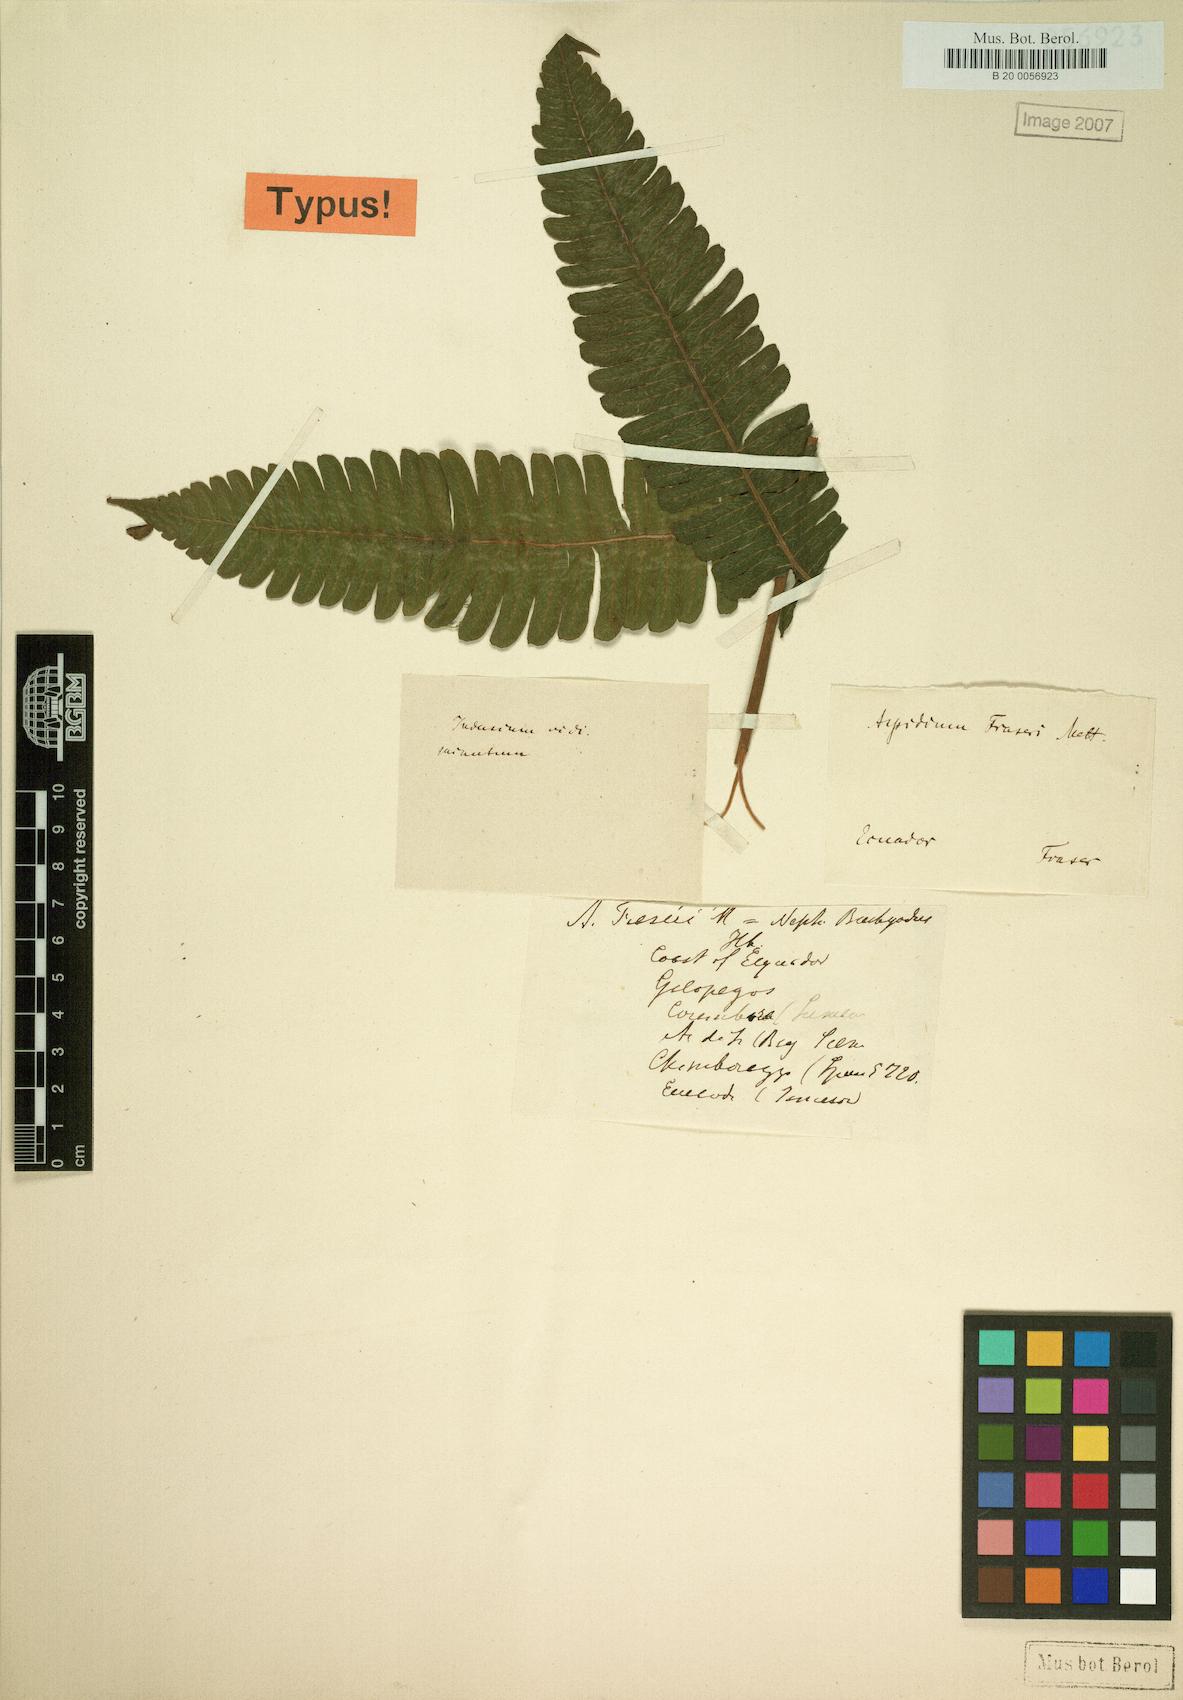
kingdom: Plantae
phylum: Tracheophyta
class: Polypodiopsida
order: Polypodiales
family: Thelypteridaceae
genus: Goniopteris
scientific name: Goniopteris fraseri
